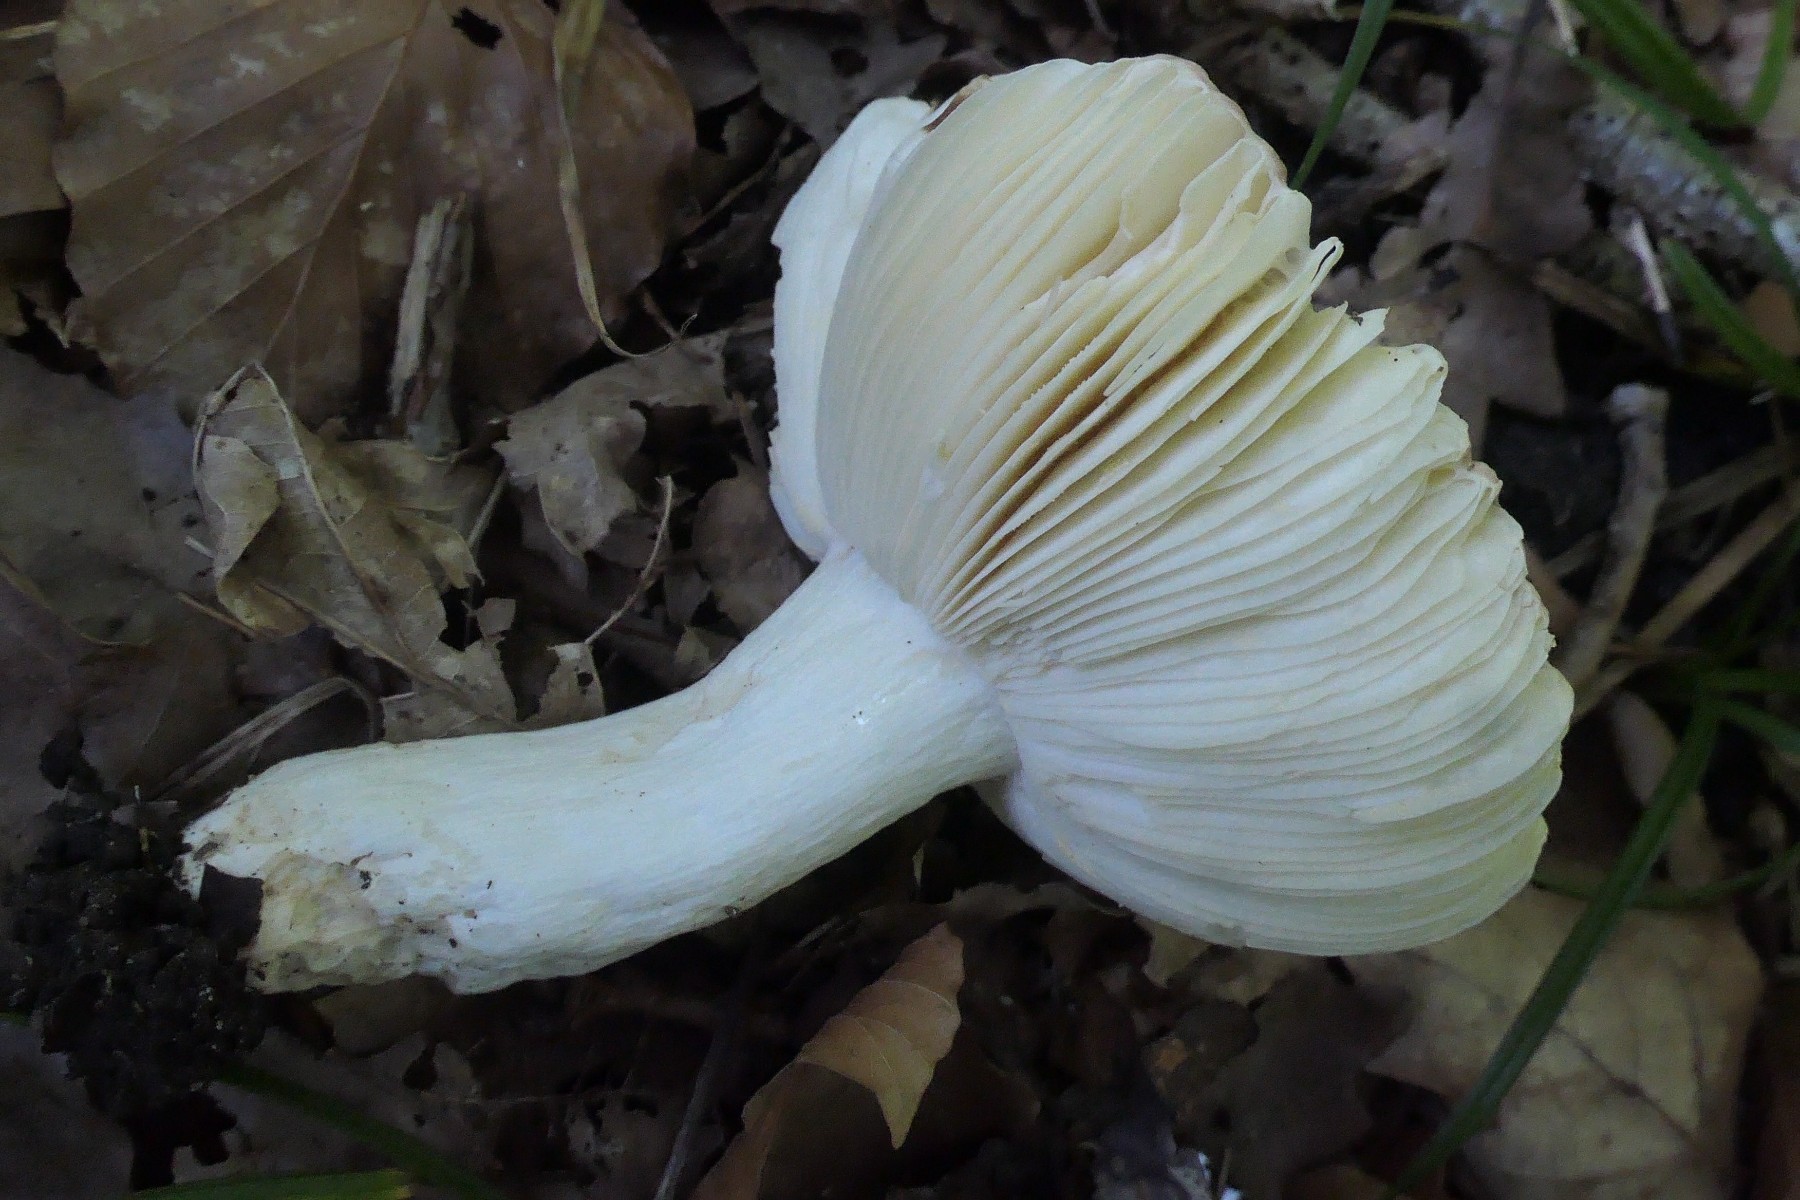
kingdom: Fungi
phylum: Basidiomycota
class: Agaricomycetes
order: Russulales
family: Russulaceae
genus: Russula
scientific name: Russula graveolens
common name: bugtet skørhat
